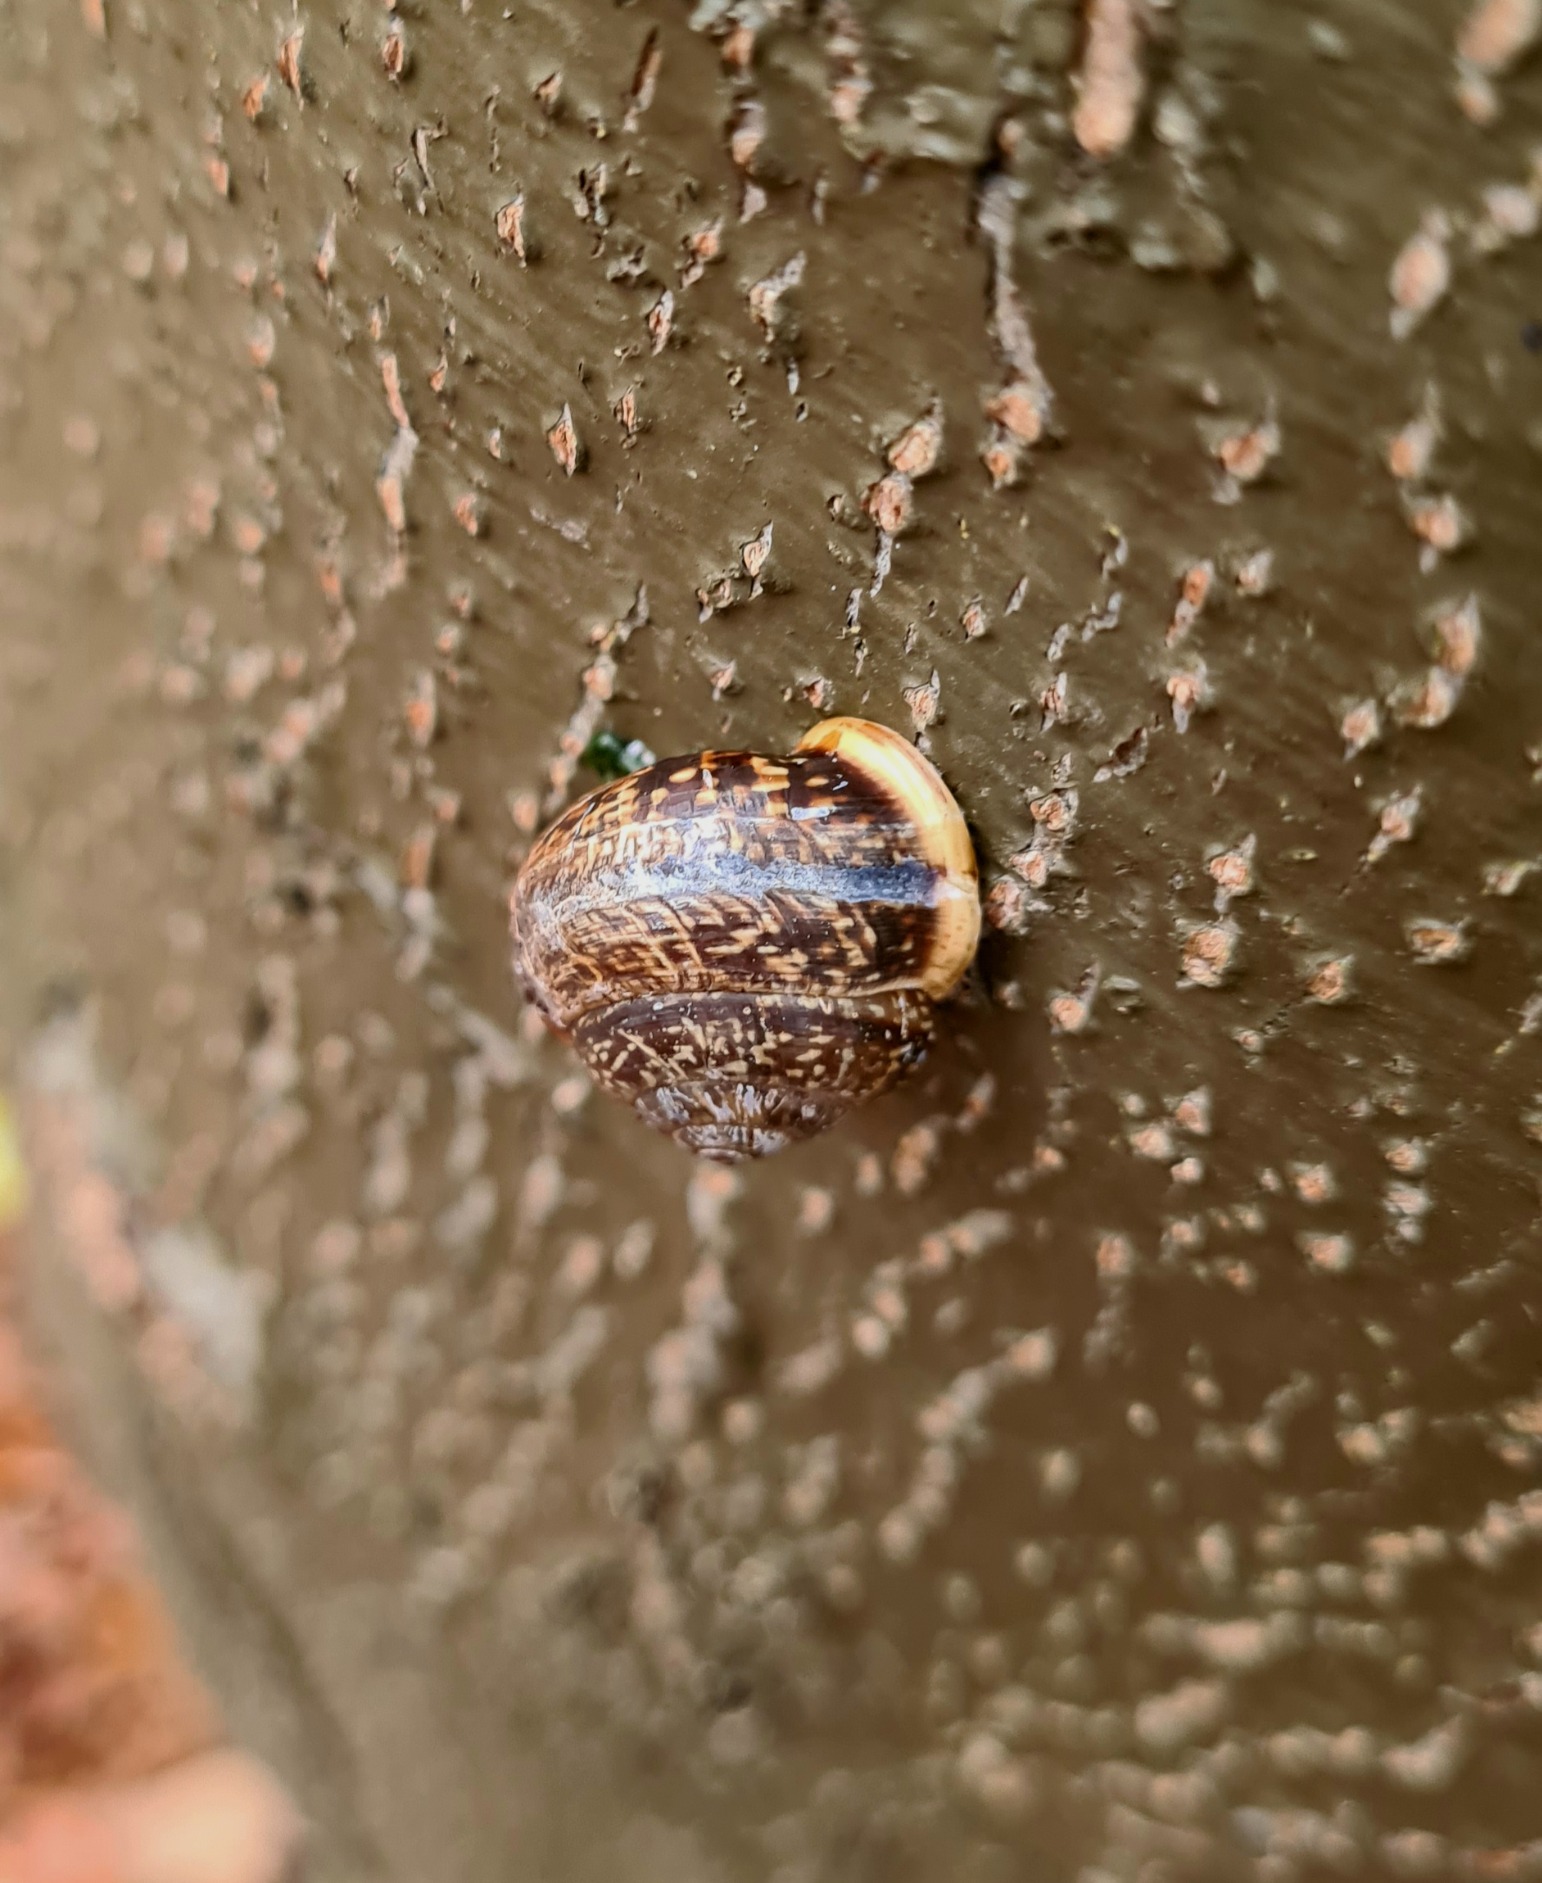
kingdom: Animalia
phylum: Mollusca
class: Gastropoda
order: Stylommatophora
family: Helicidae
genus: Arianta
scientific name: Arianta arbustorum
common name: Kratsnegl
